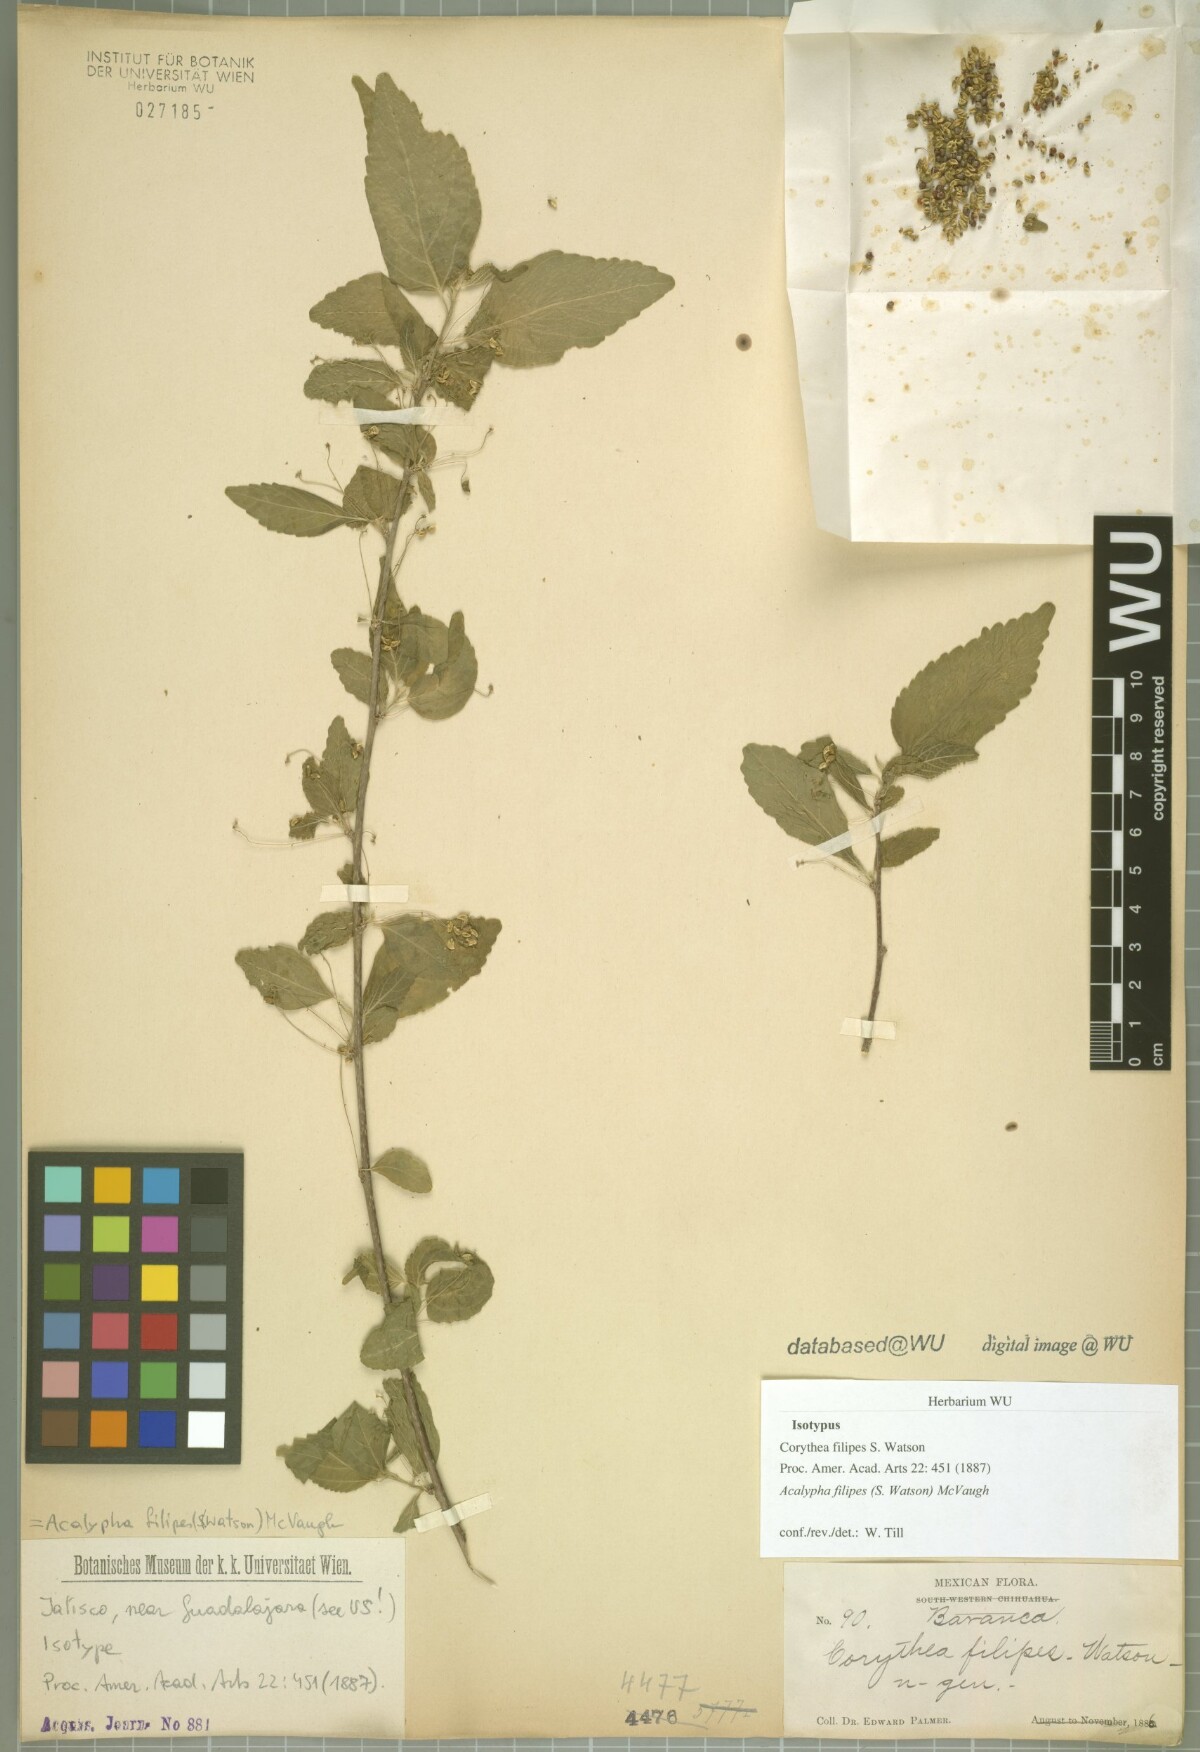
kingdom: Plantae
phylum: Tracheophyta
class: Magnoliopsida
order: Malpighiales
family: Euphorbiaceae
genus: Acalypha
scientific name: Acalypha filipes
